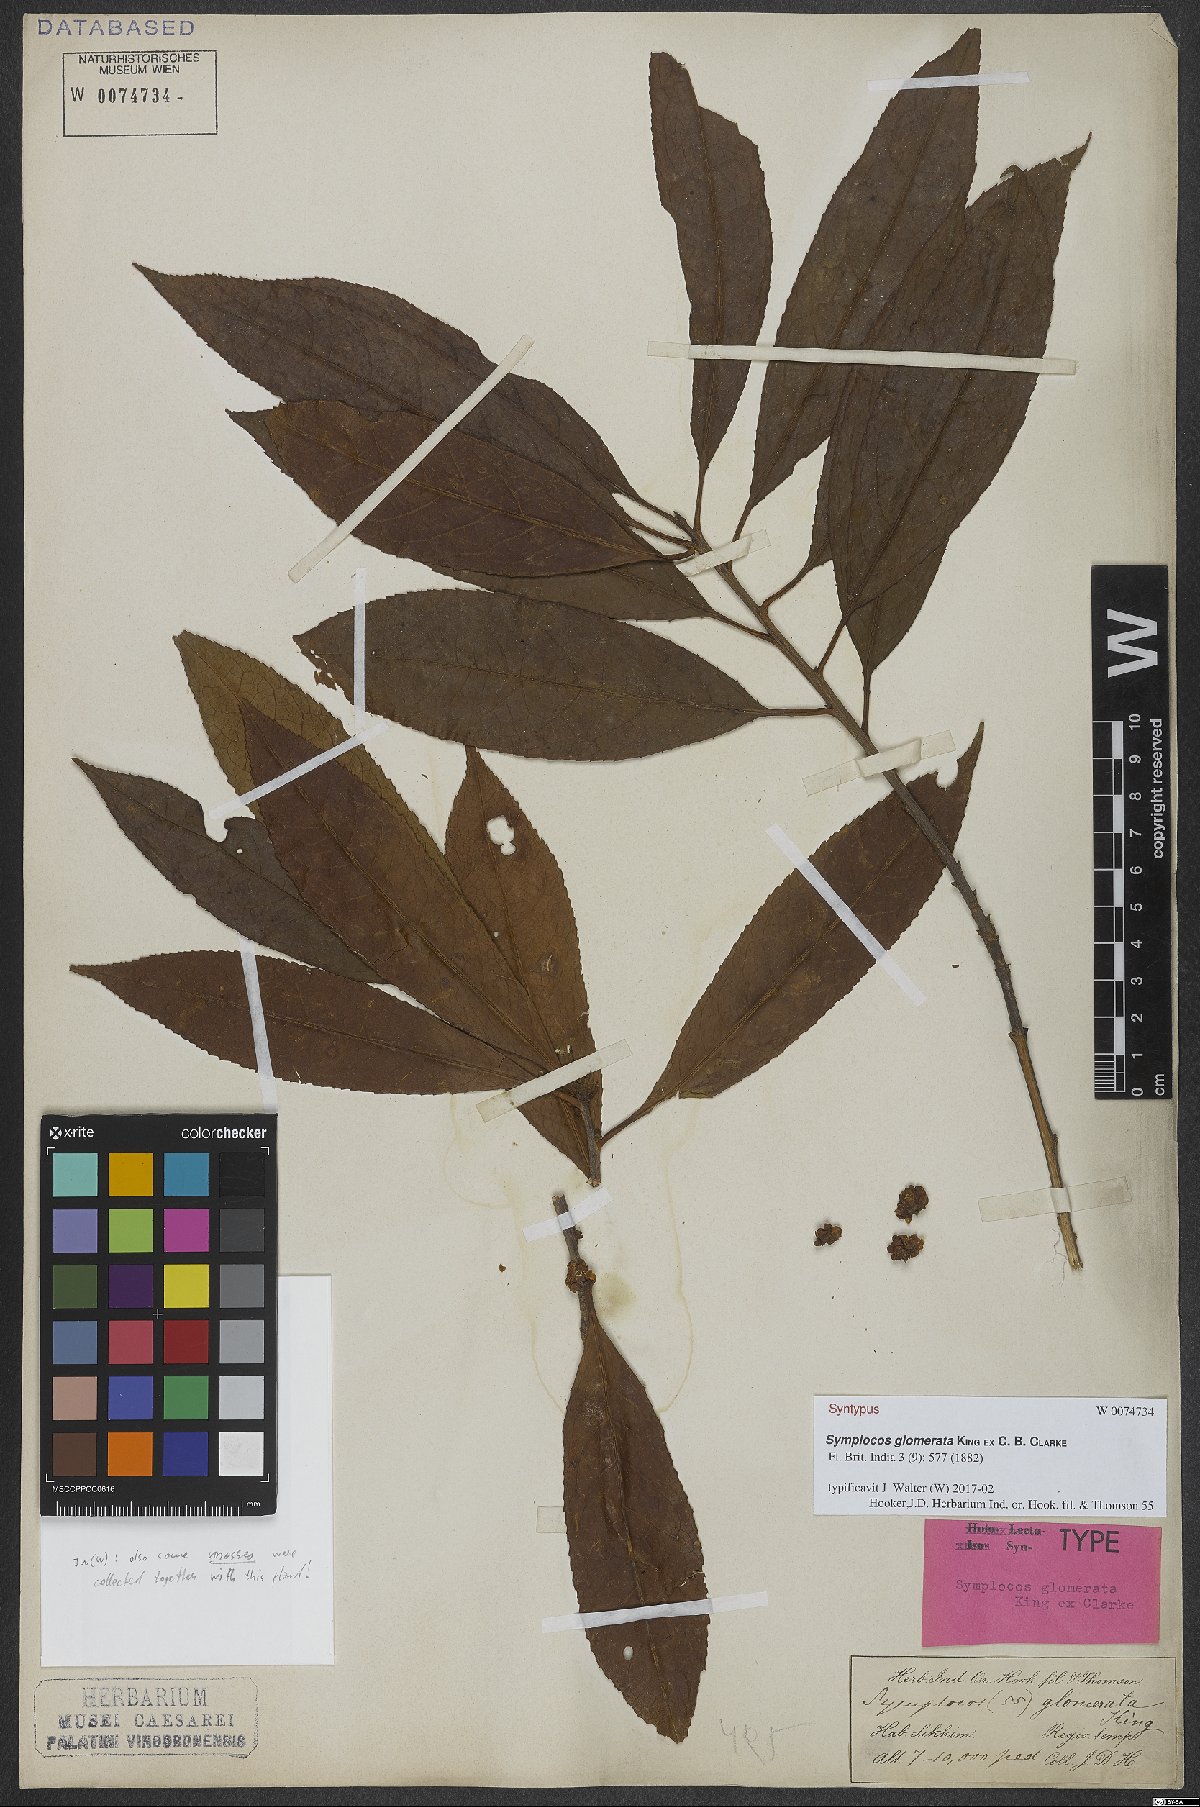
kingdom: Plantae
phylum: Tracheophyta
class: Magnoliopsida
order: Ericales
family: Symplocaceae
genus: Symplocos
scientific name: Symplocos glomerata
